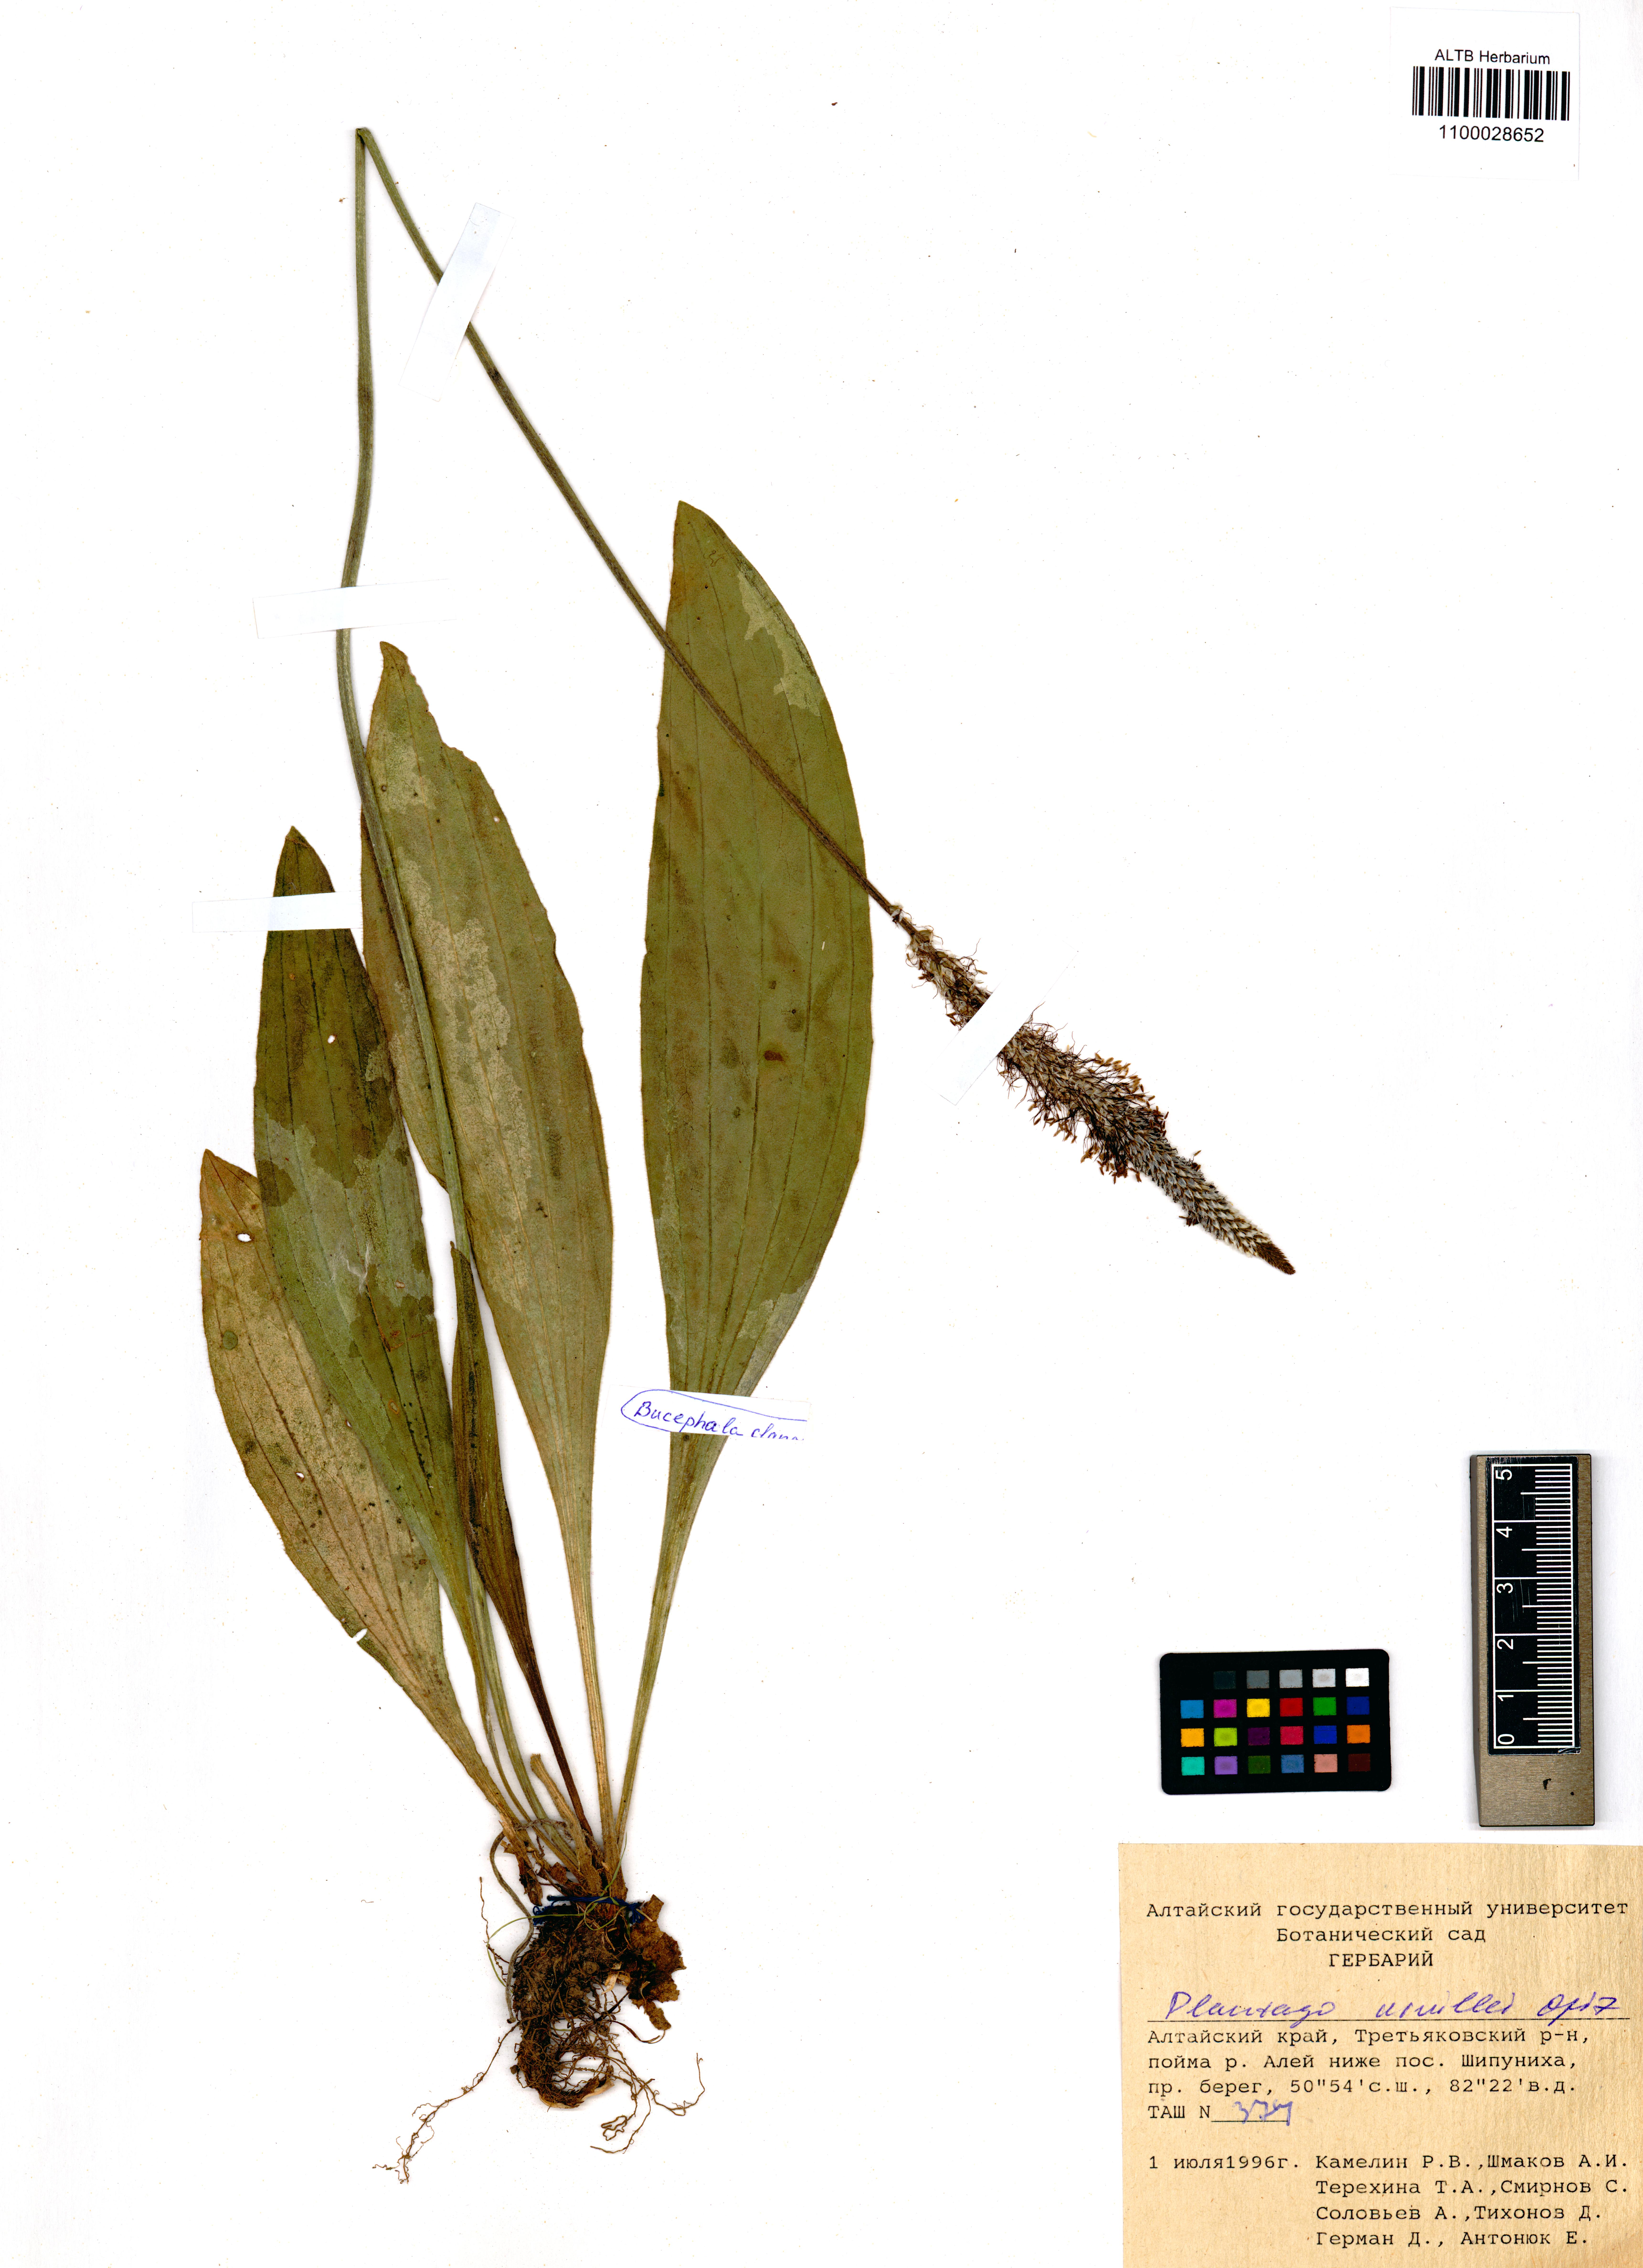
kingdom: Plantae
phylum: Tracheophyta
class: Magnoliopsida
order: Lamiales
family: Plantaginaceae
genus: Plantago
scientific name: Plantago urvillei
